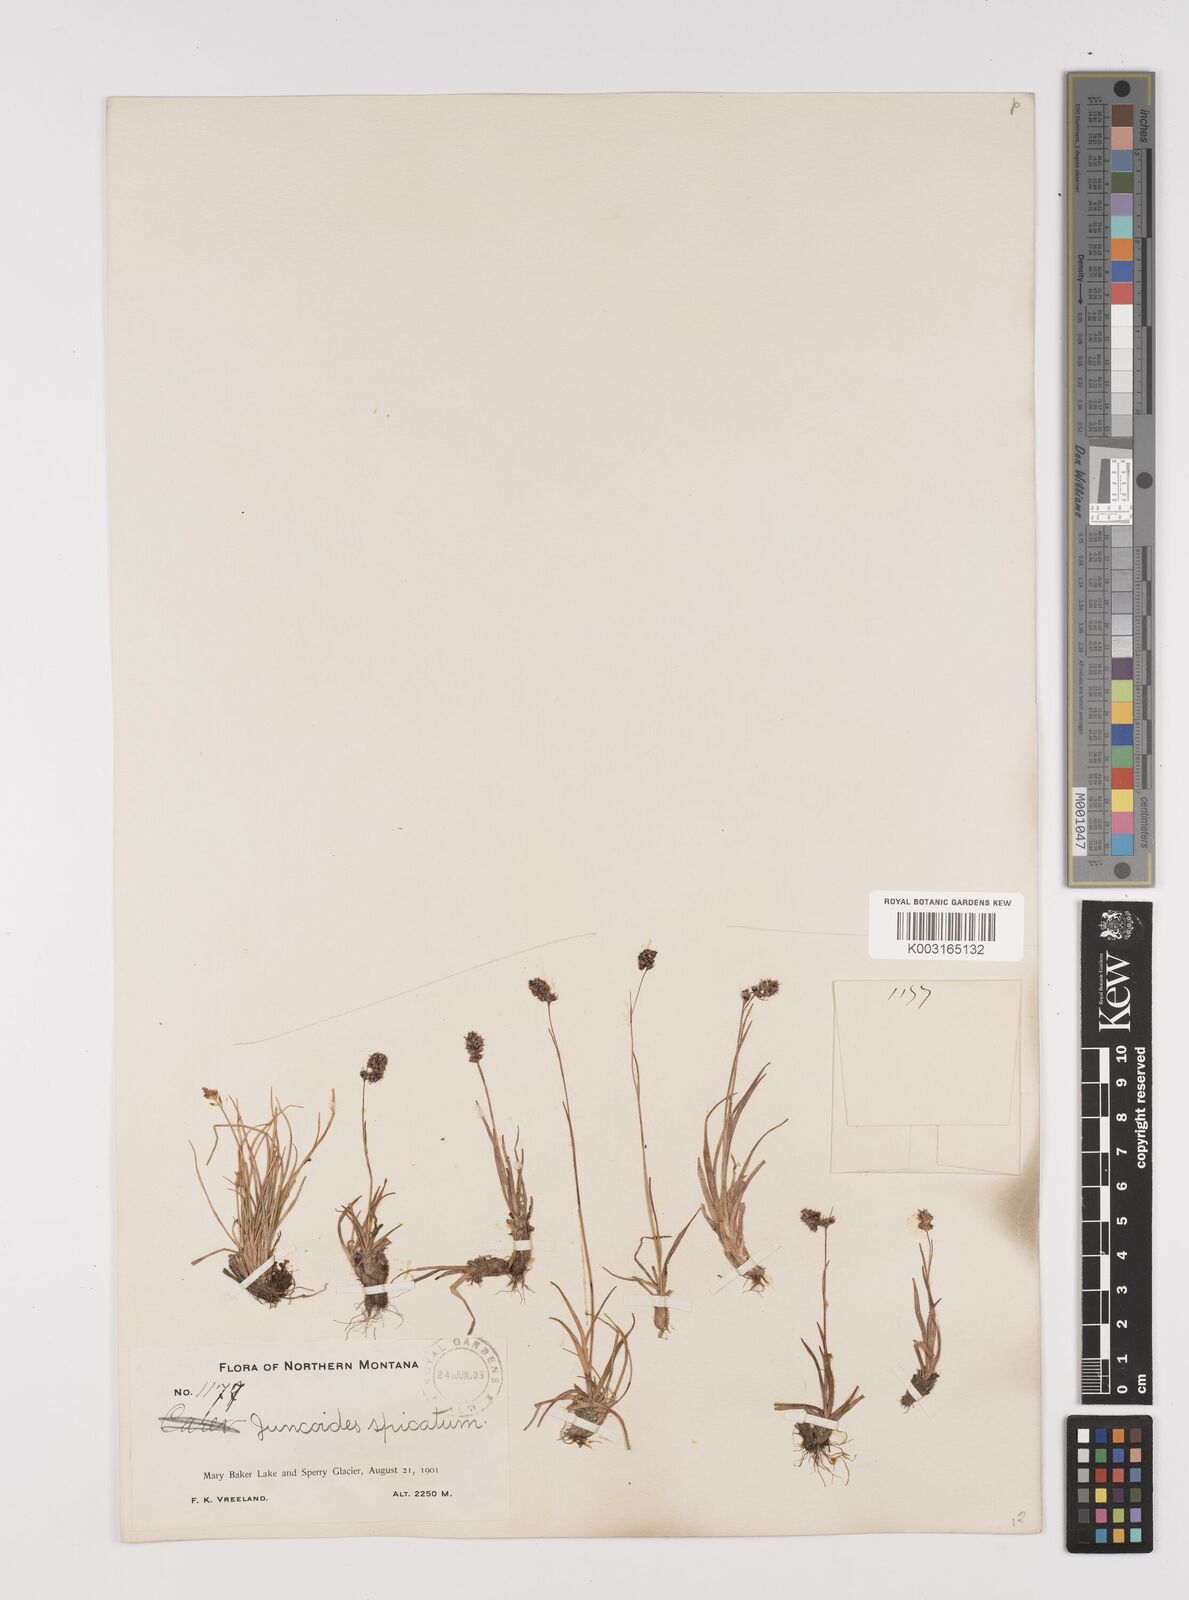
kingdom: Plantae
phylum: Tracheophyta
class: Liliopsida
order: Poales
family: Juncaceae
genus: Luzula
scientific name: Luzula spicata
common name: Spiked wood-rush
